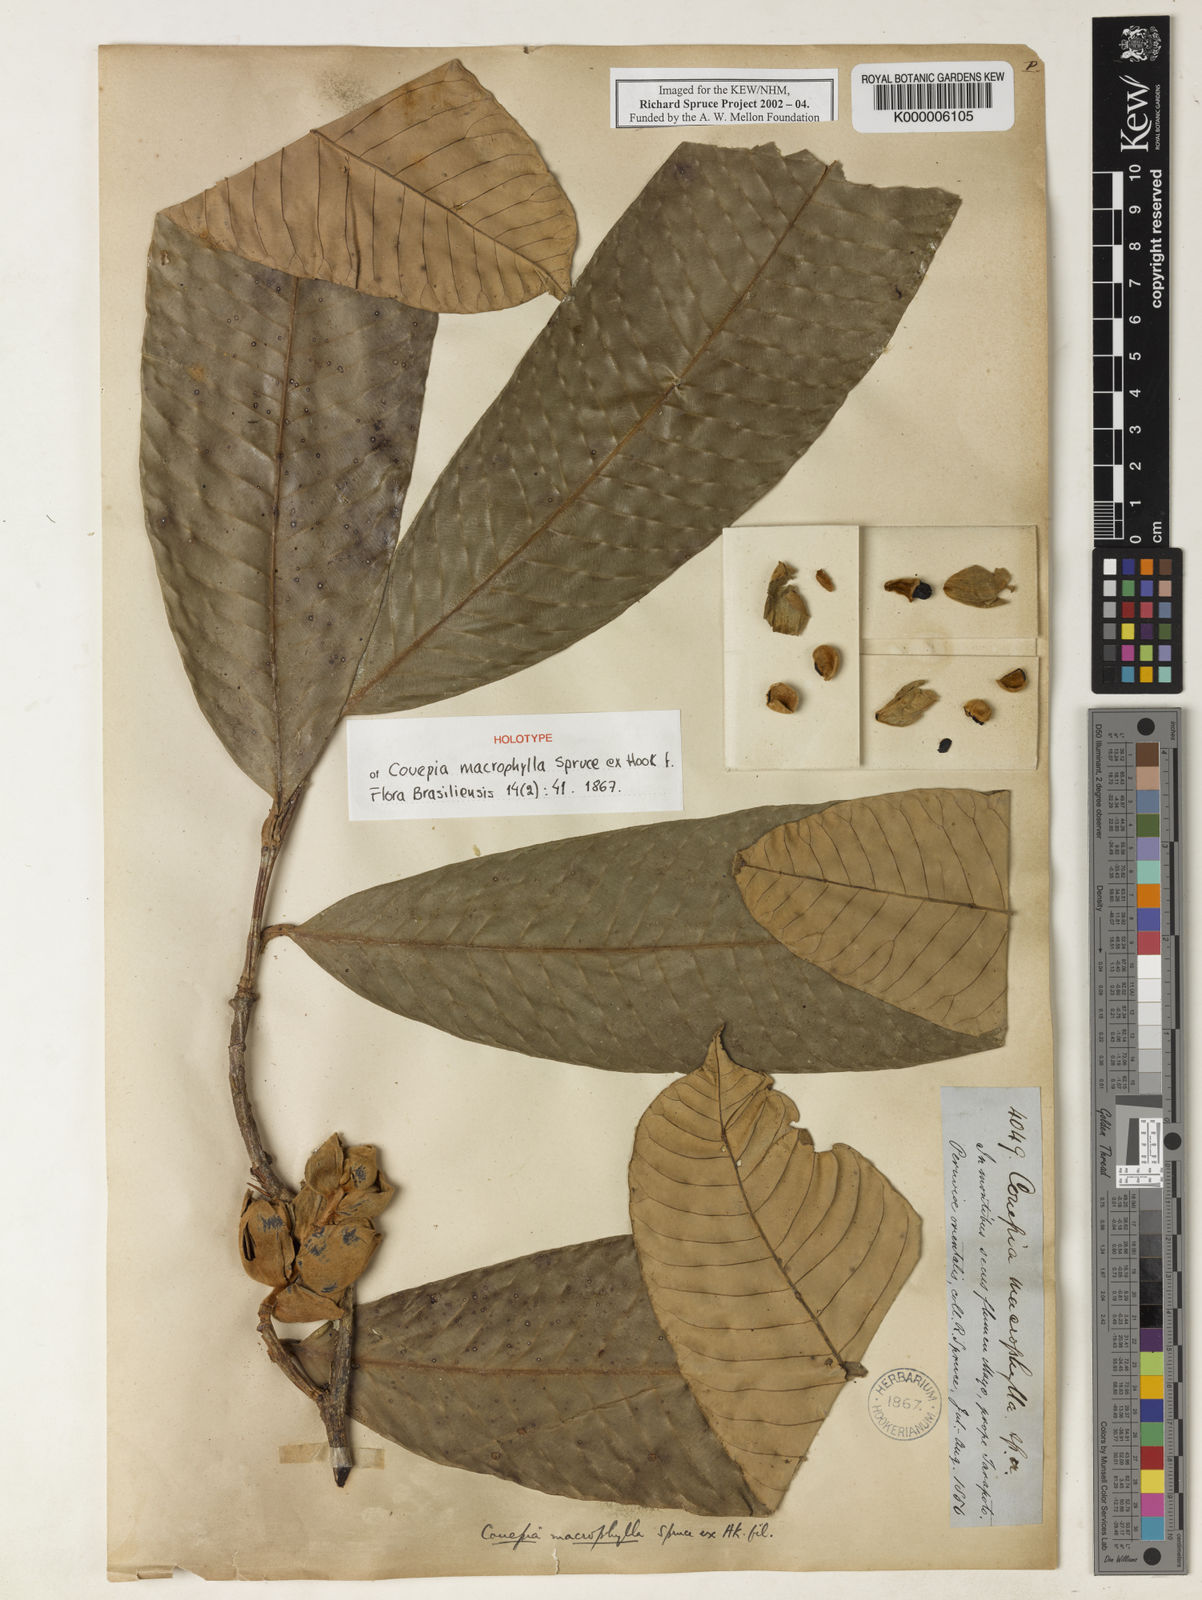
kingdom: Plantae
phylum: Tracheophyta
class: Magnoliopsida
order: Malpighiales
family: Chrysobalanaceae
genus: Couepia
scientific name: Couepia macrophylla
